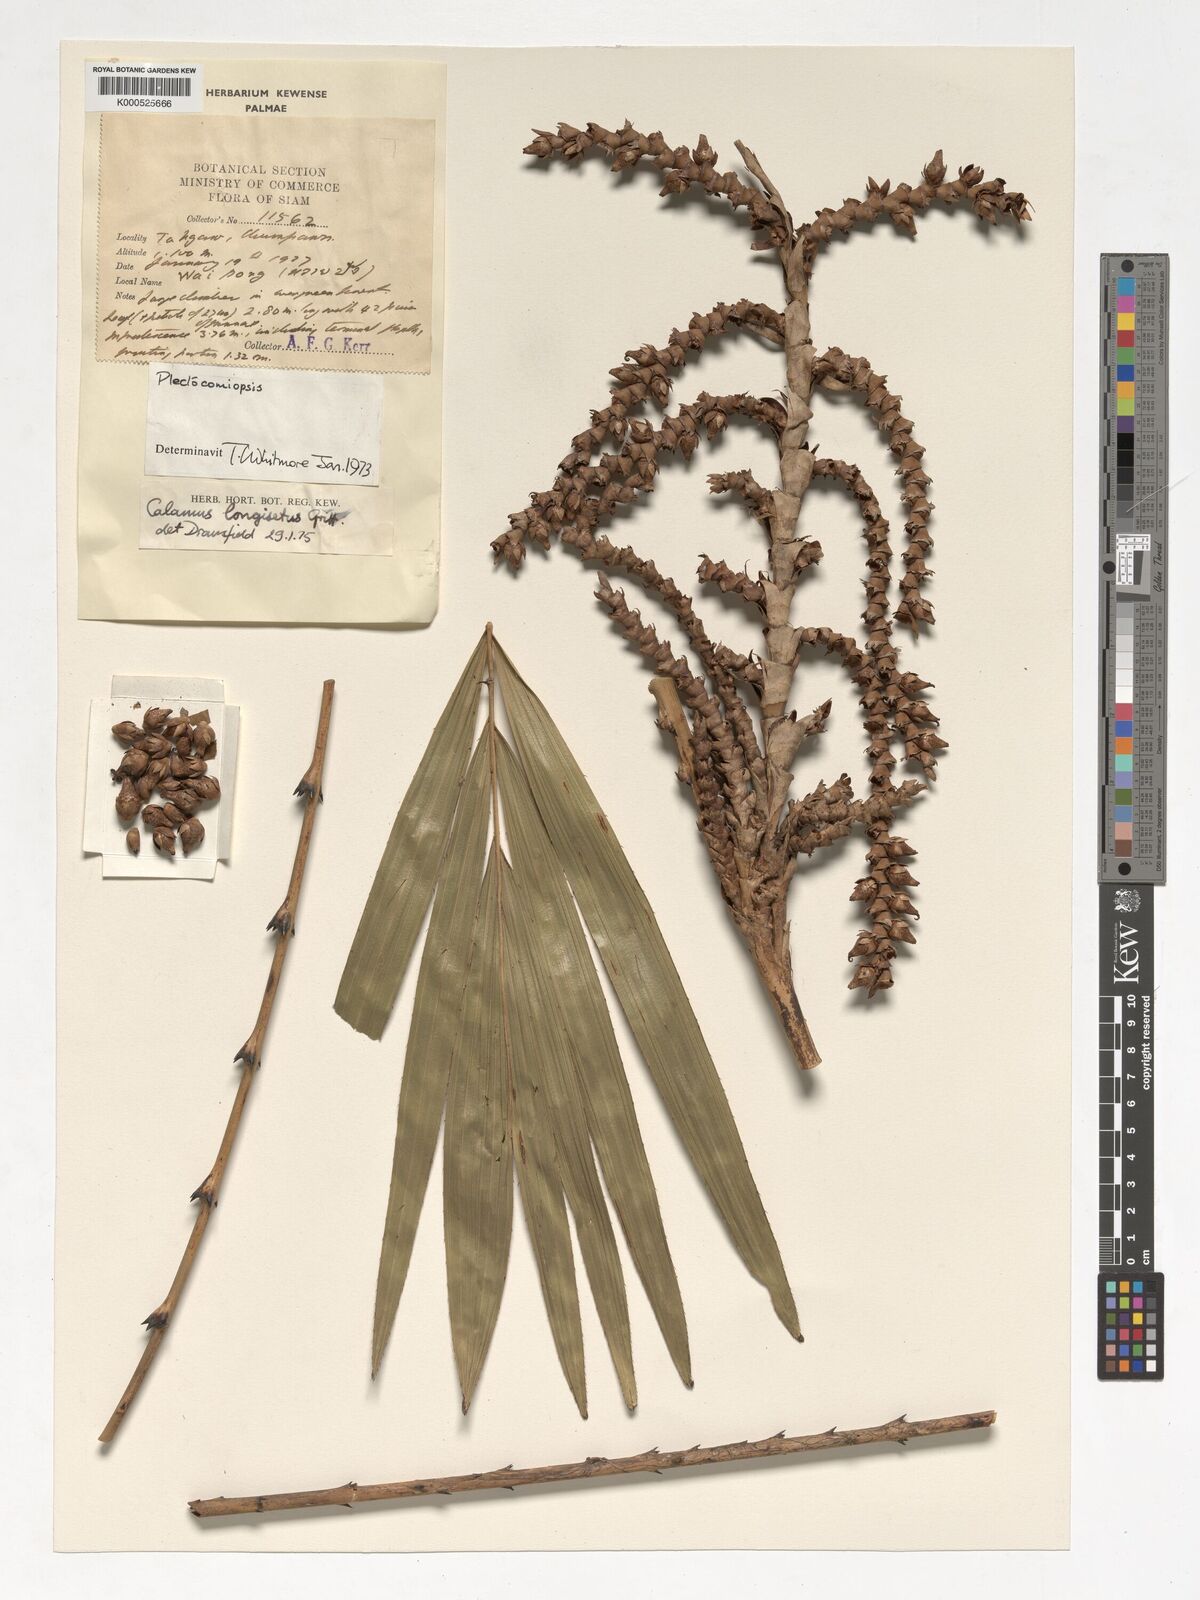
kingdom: Plantae
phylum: Tracheophyta
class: Liliopsida
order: Arecales
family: Arecaceae
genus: Calamus
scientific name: Calamus longisetus
